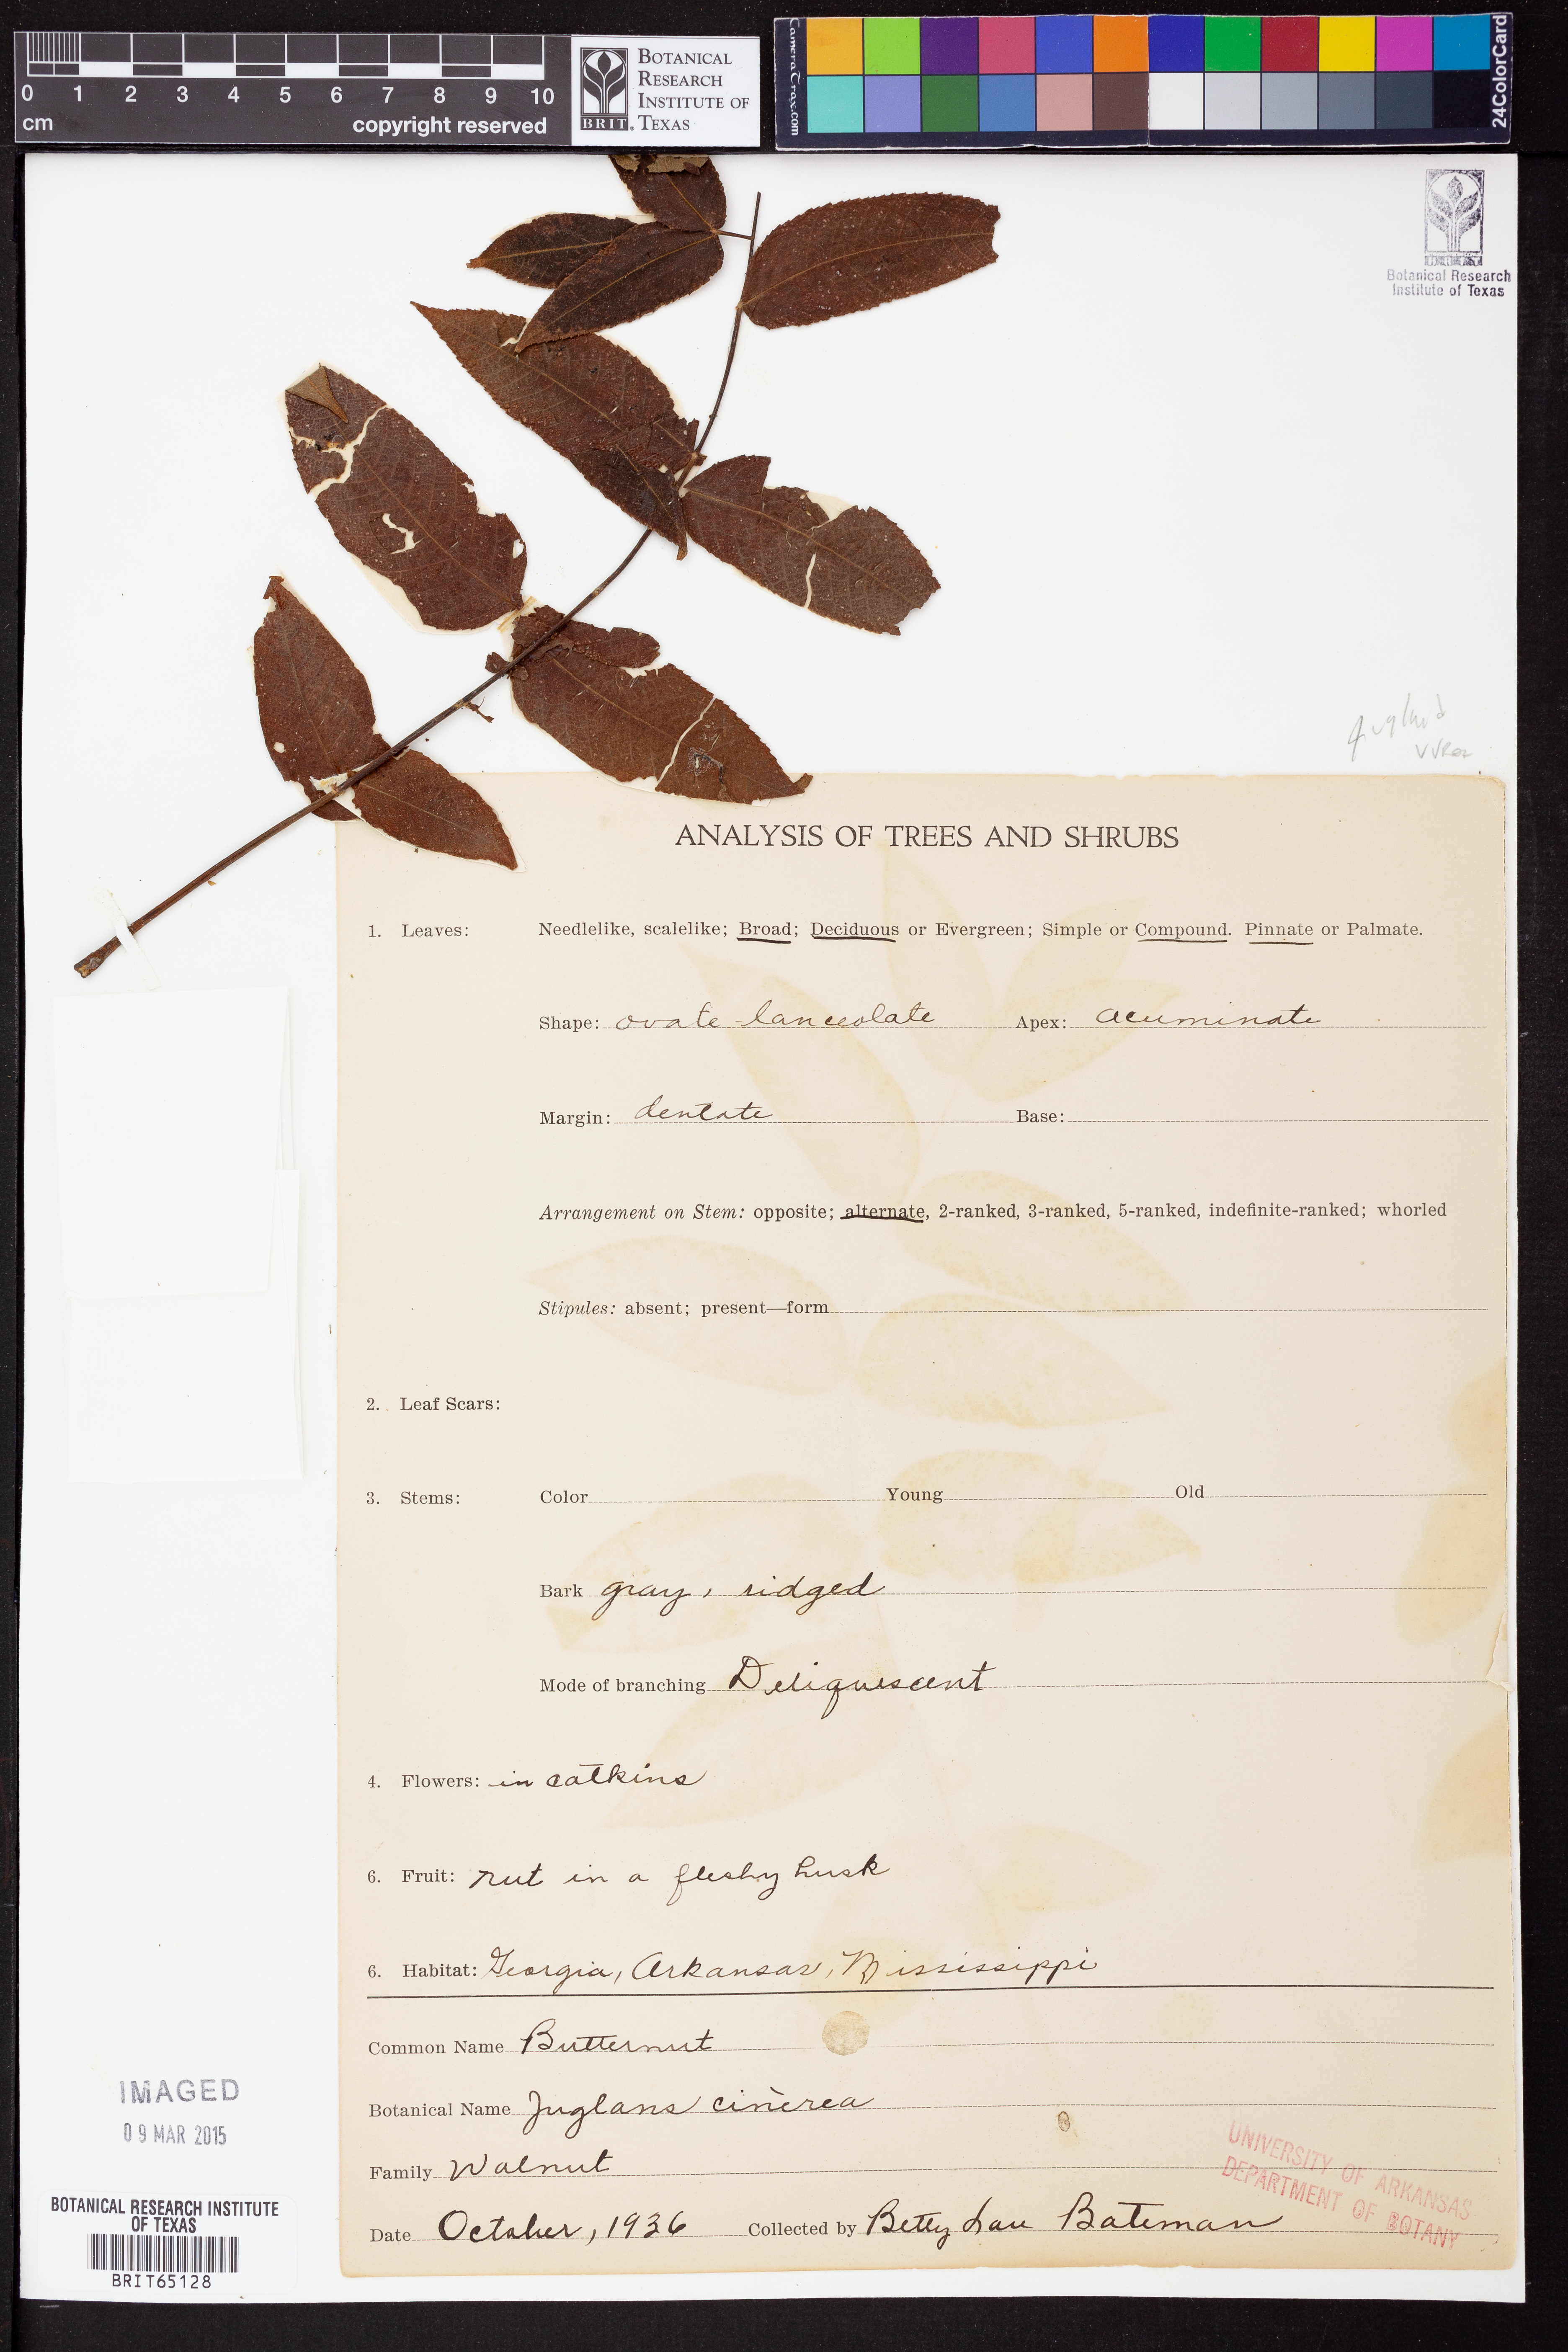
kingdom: Plantae
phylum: Tracheophyta
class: Magnoliopsida
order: Fagales
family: Juglandaceae
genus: Juglans
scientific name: Juglans cinerea
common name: Butternut
